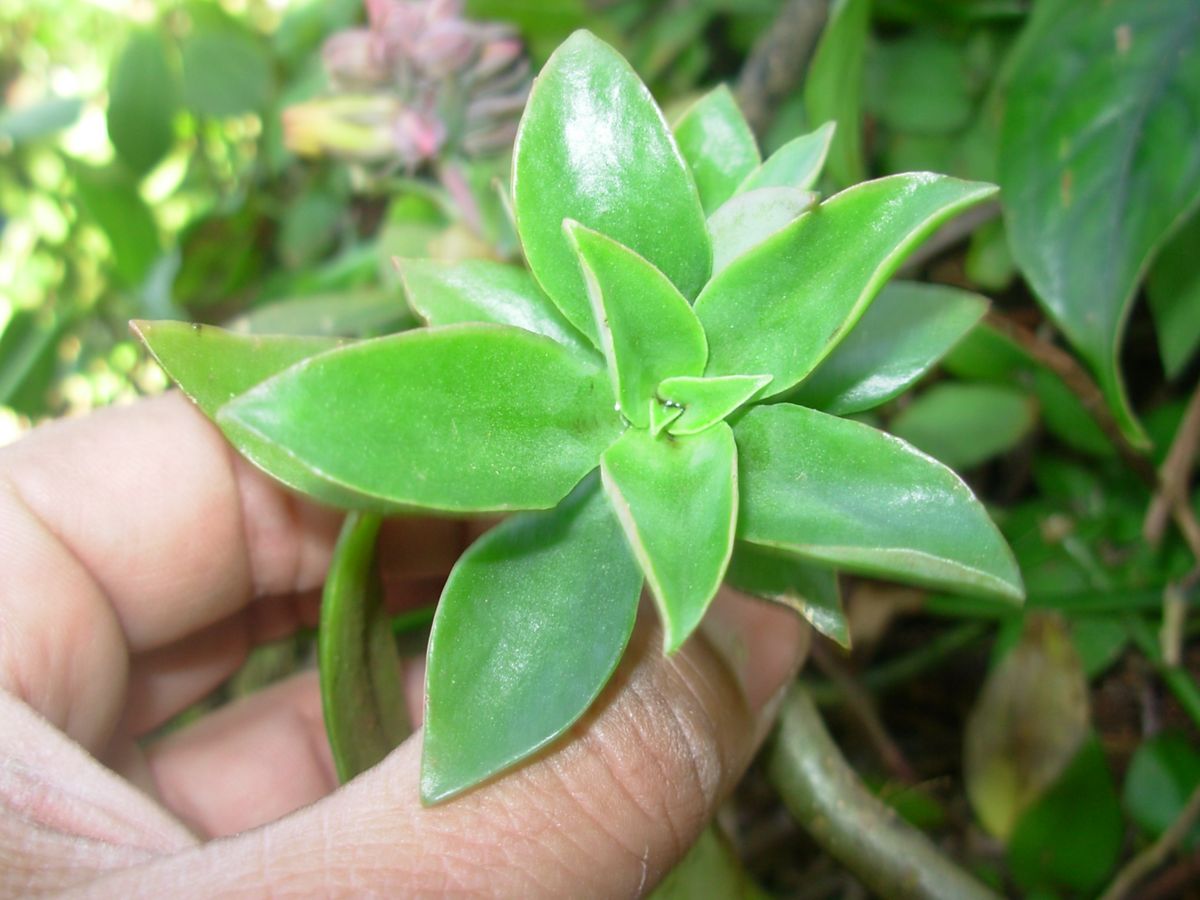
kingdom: Plantae
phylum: Tracheophyta
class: Magnoliopsida
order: Saxifragales
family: Crassulaceae
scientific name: Crassulaceae
